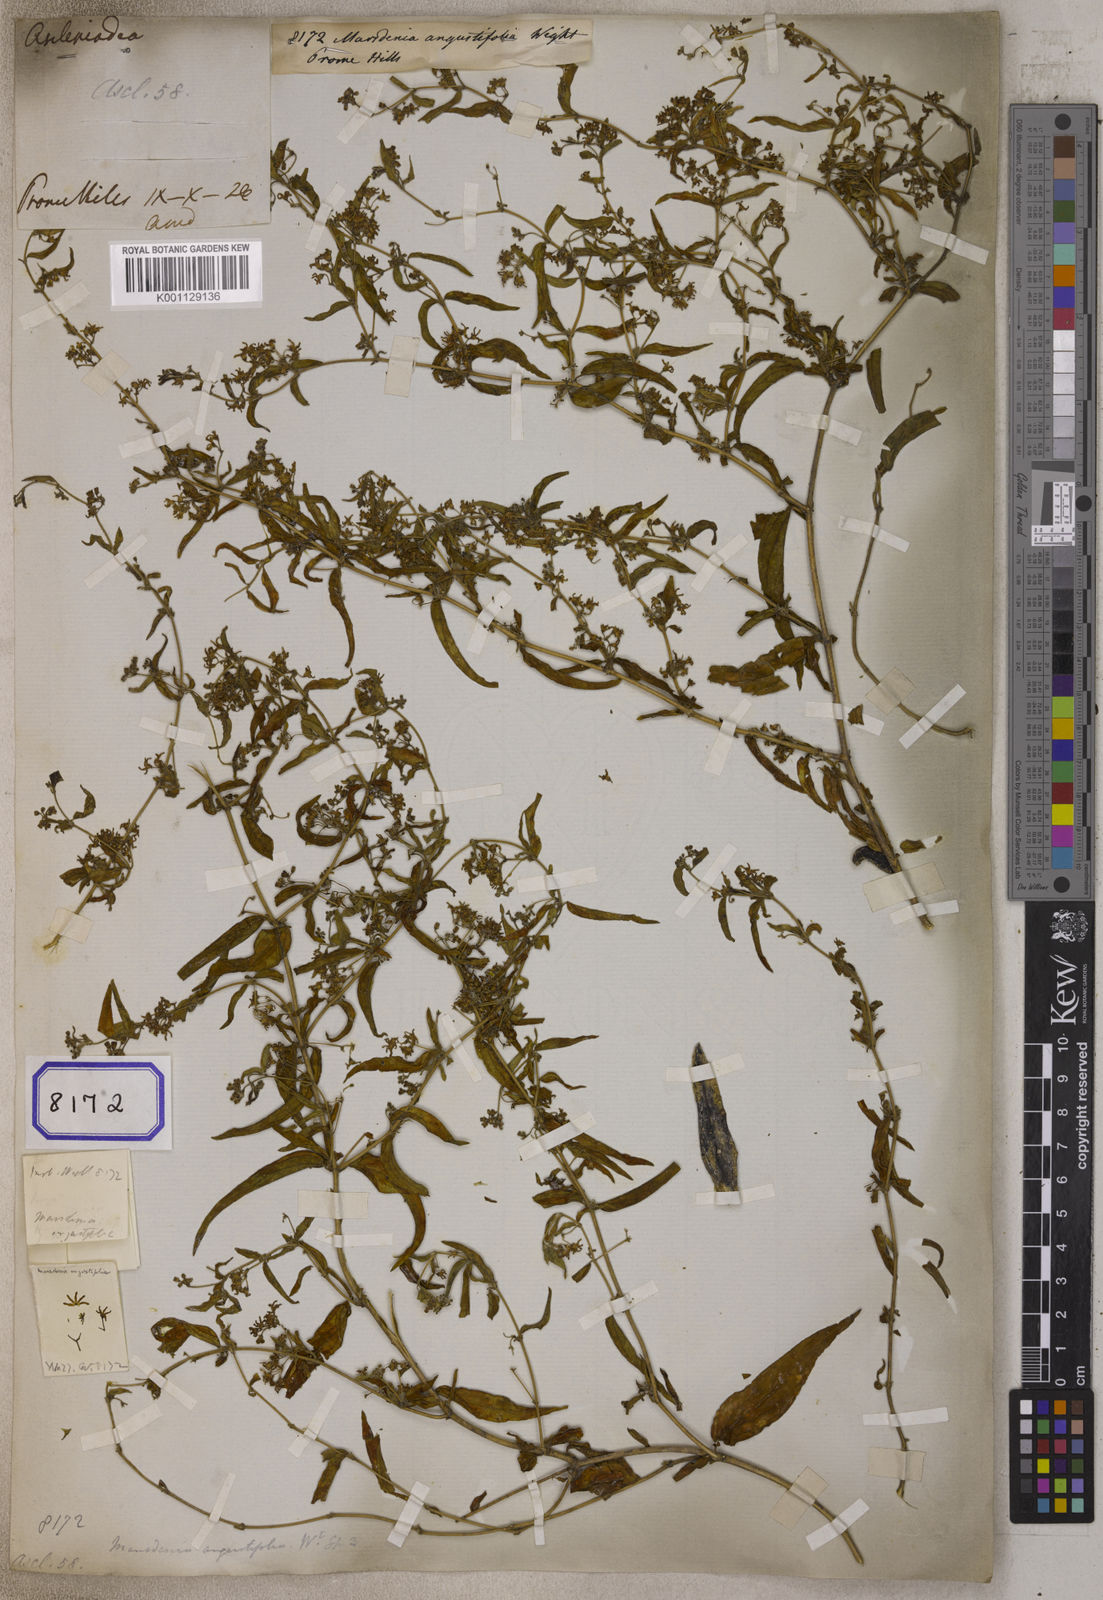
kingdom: Plantae
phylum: Tracheophyta
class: Magnoliopsida
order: Gentianales
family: Apocynaceae
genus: Lygisma
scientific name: Lygisma angustifolium
